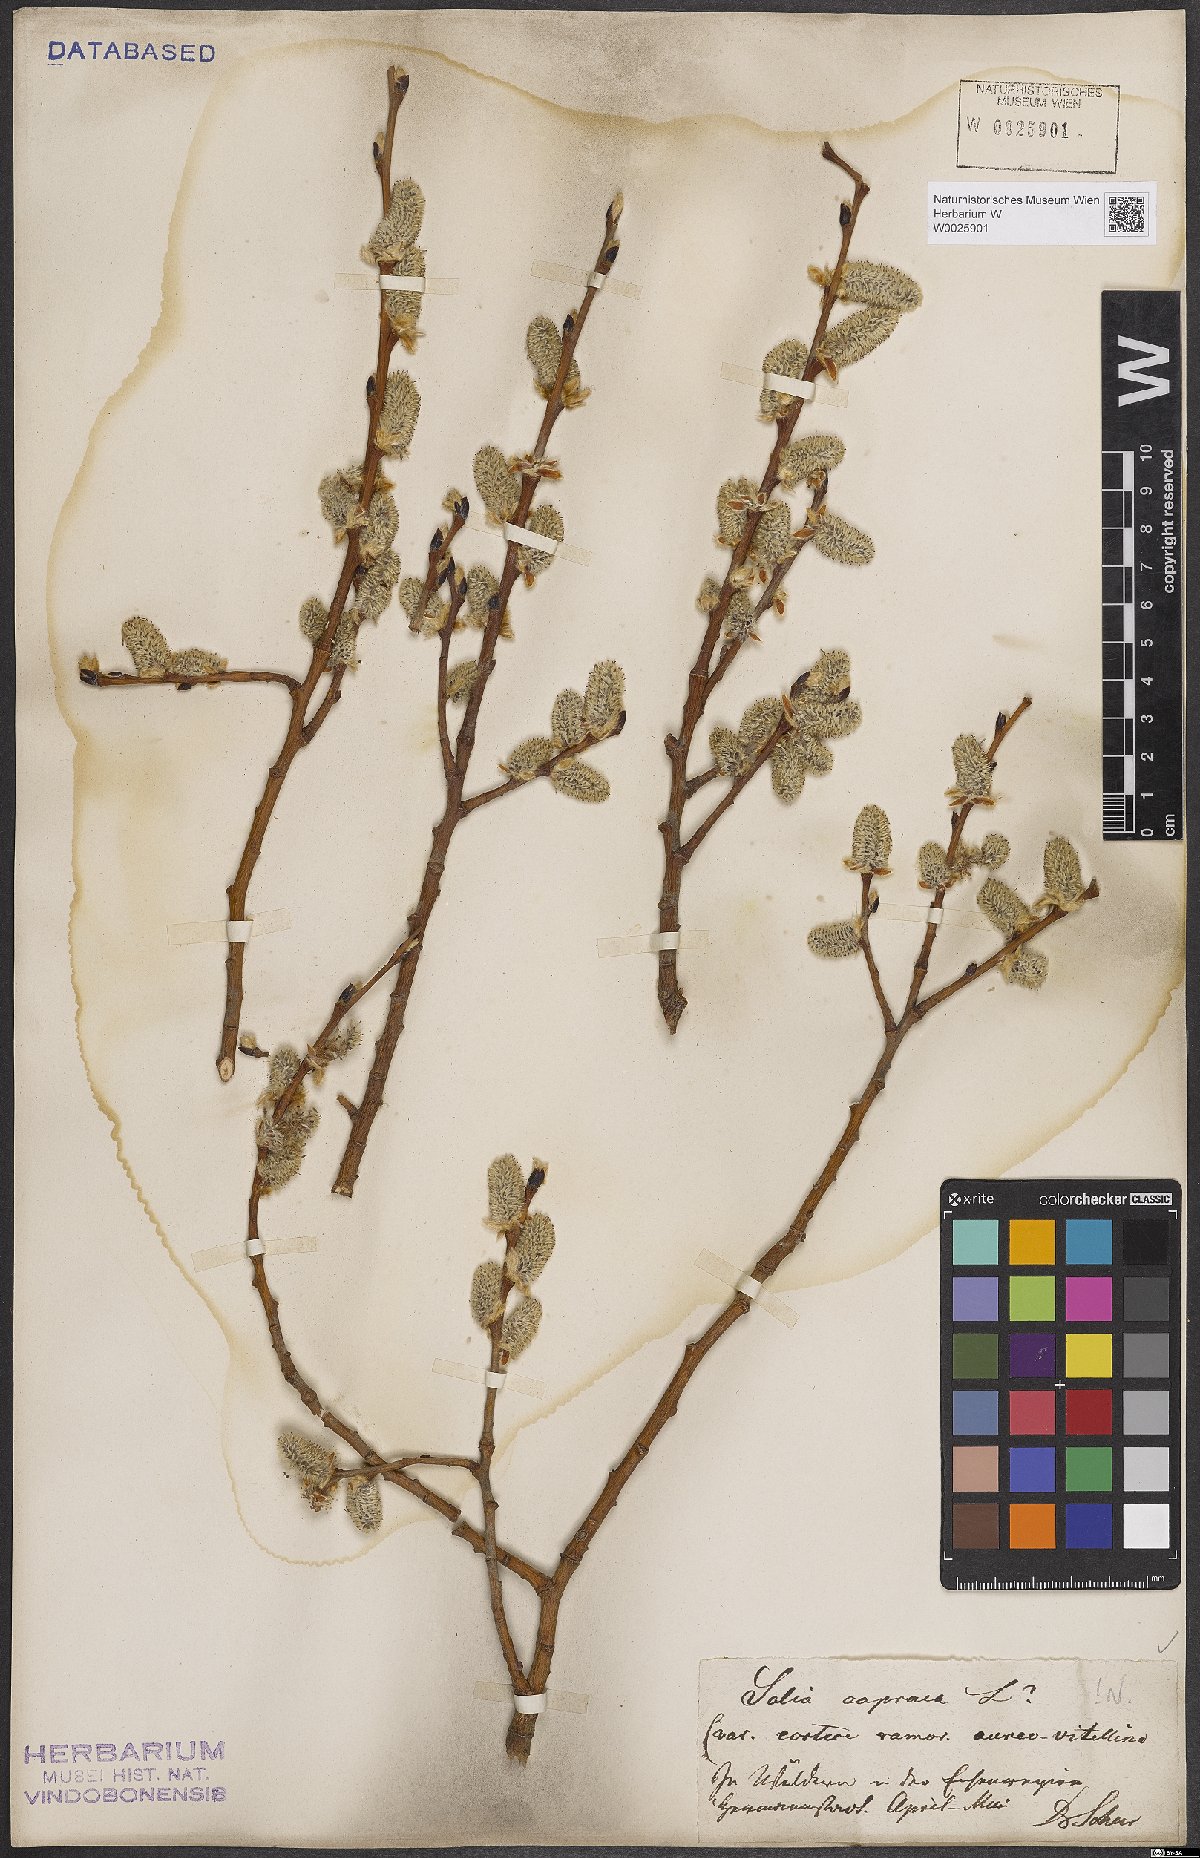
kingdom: Plantae
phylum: Tracheophyta
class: Magnoliopsida
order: Malpighiales
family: Salicaceae
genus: Salix
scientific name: Salix caprea
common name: Goat willow
